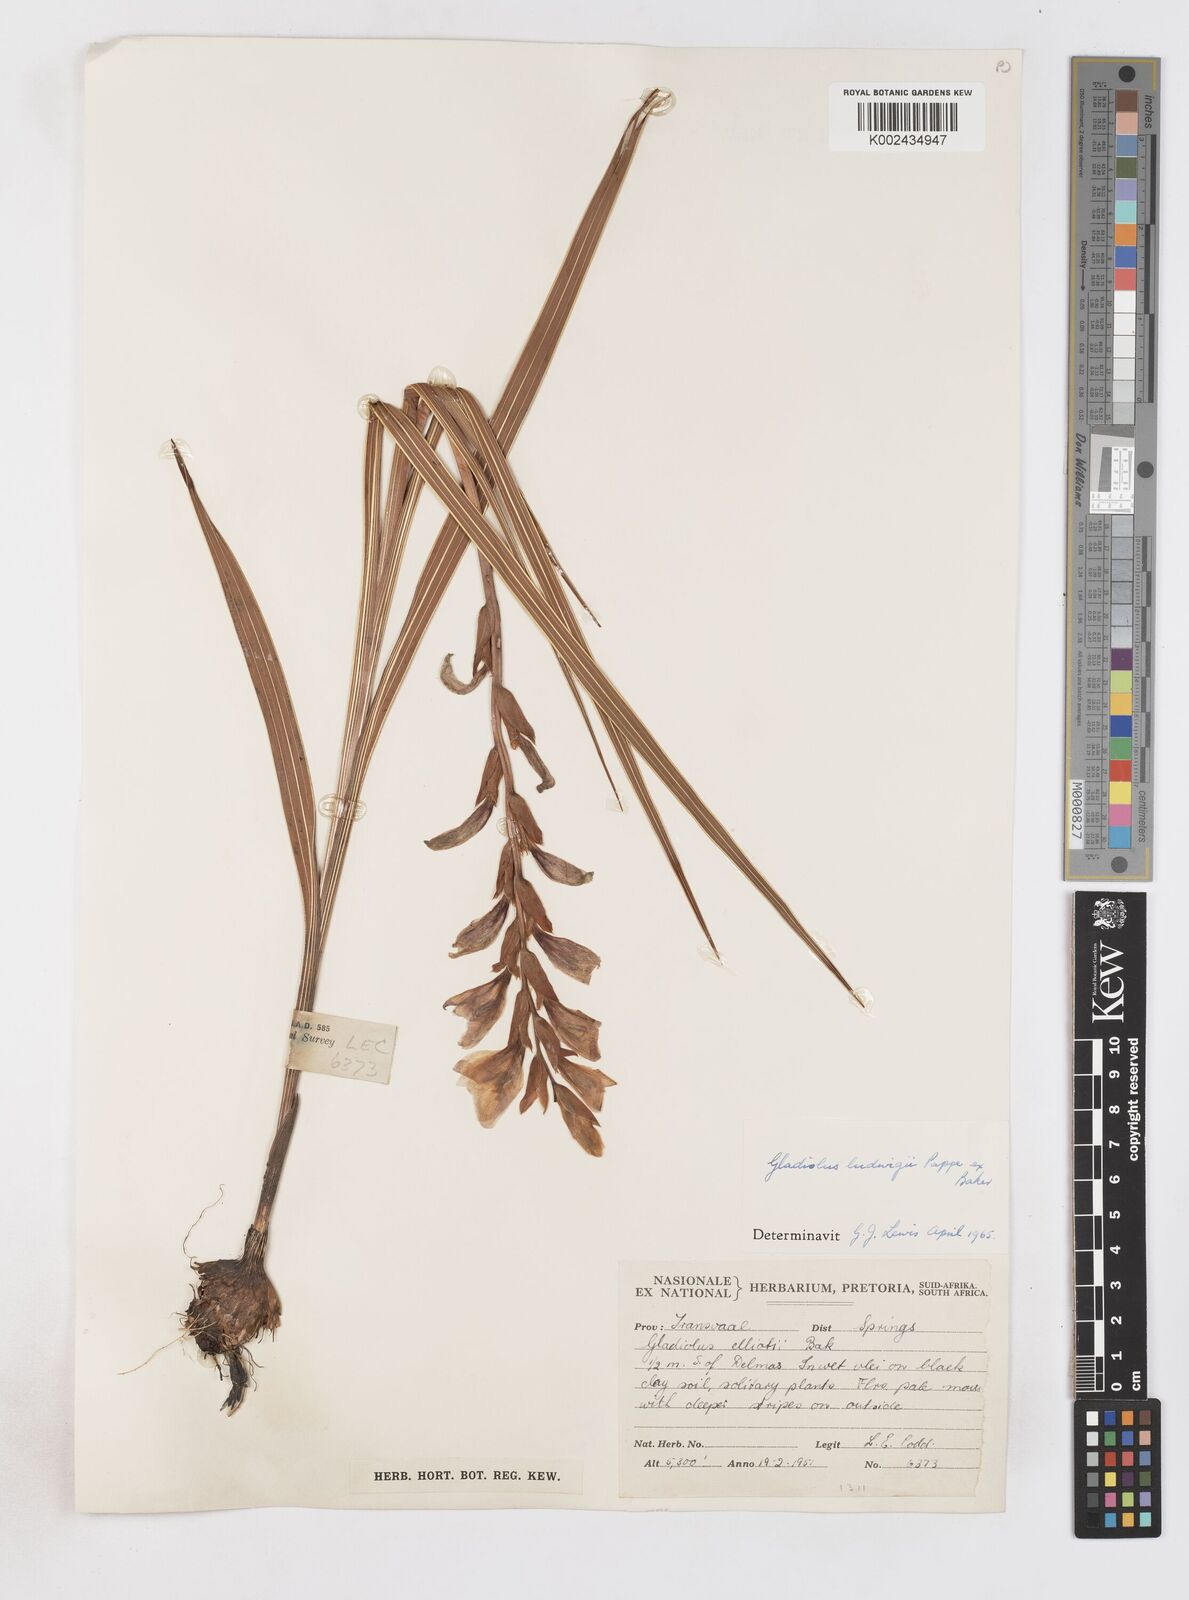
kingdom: Plantae
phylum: Tracheophyta
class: Liliopsida
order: Asparagales
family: Iridaceae
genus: Gladiolus
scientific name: Gladiolus sericeovillosus
